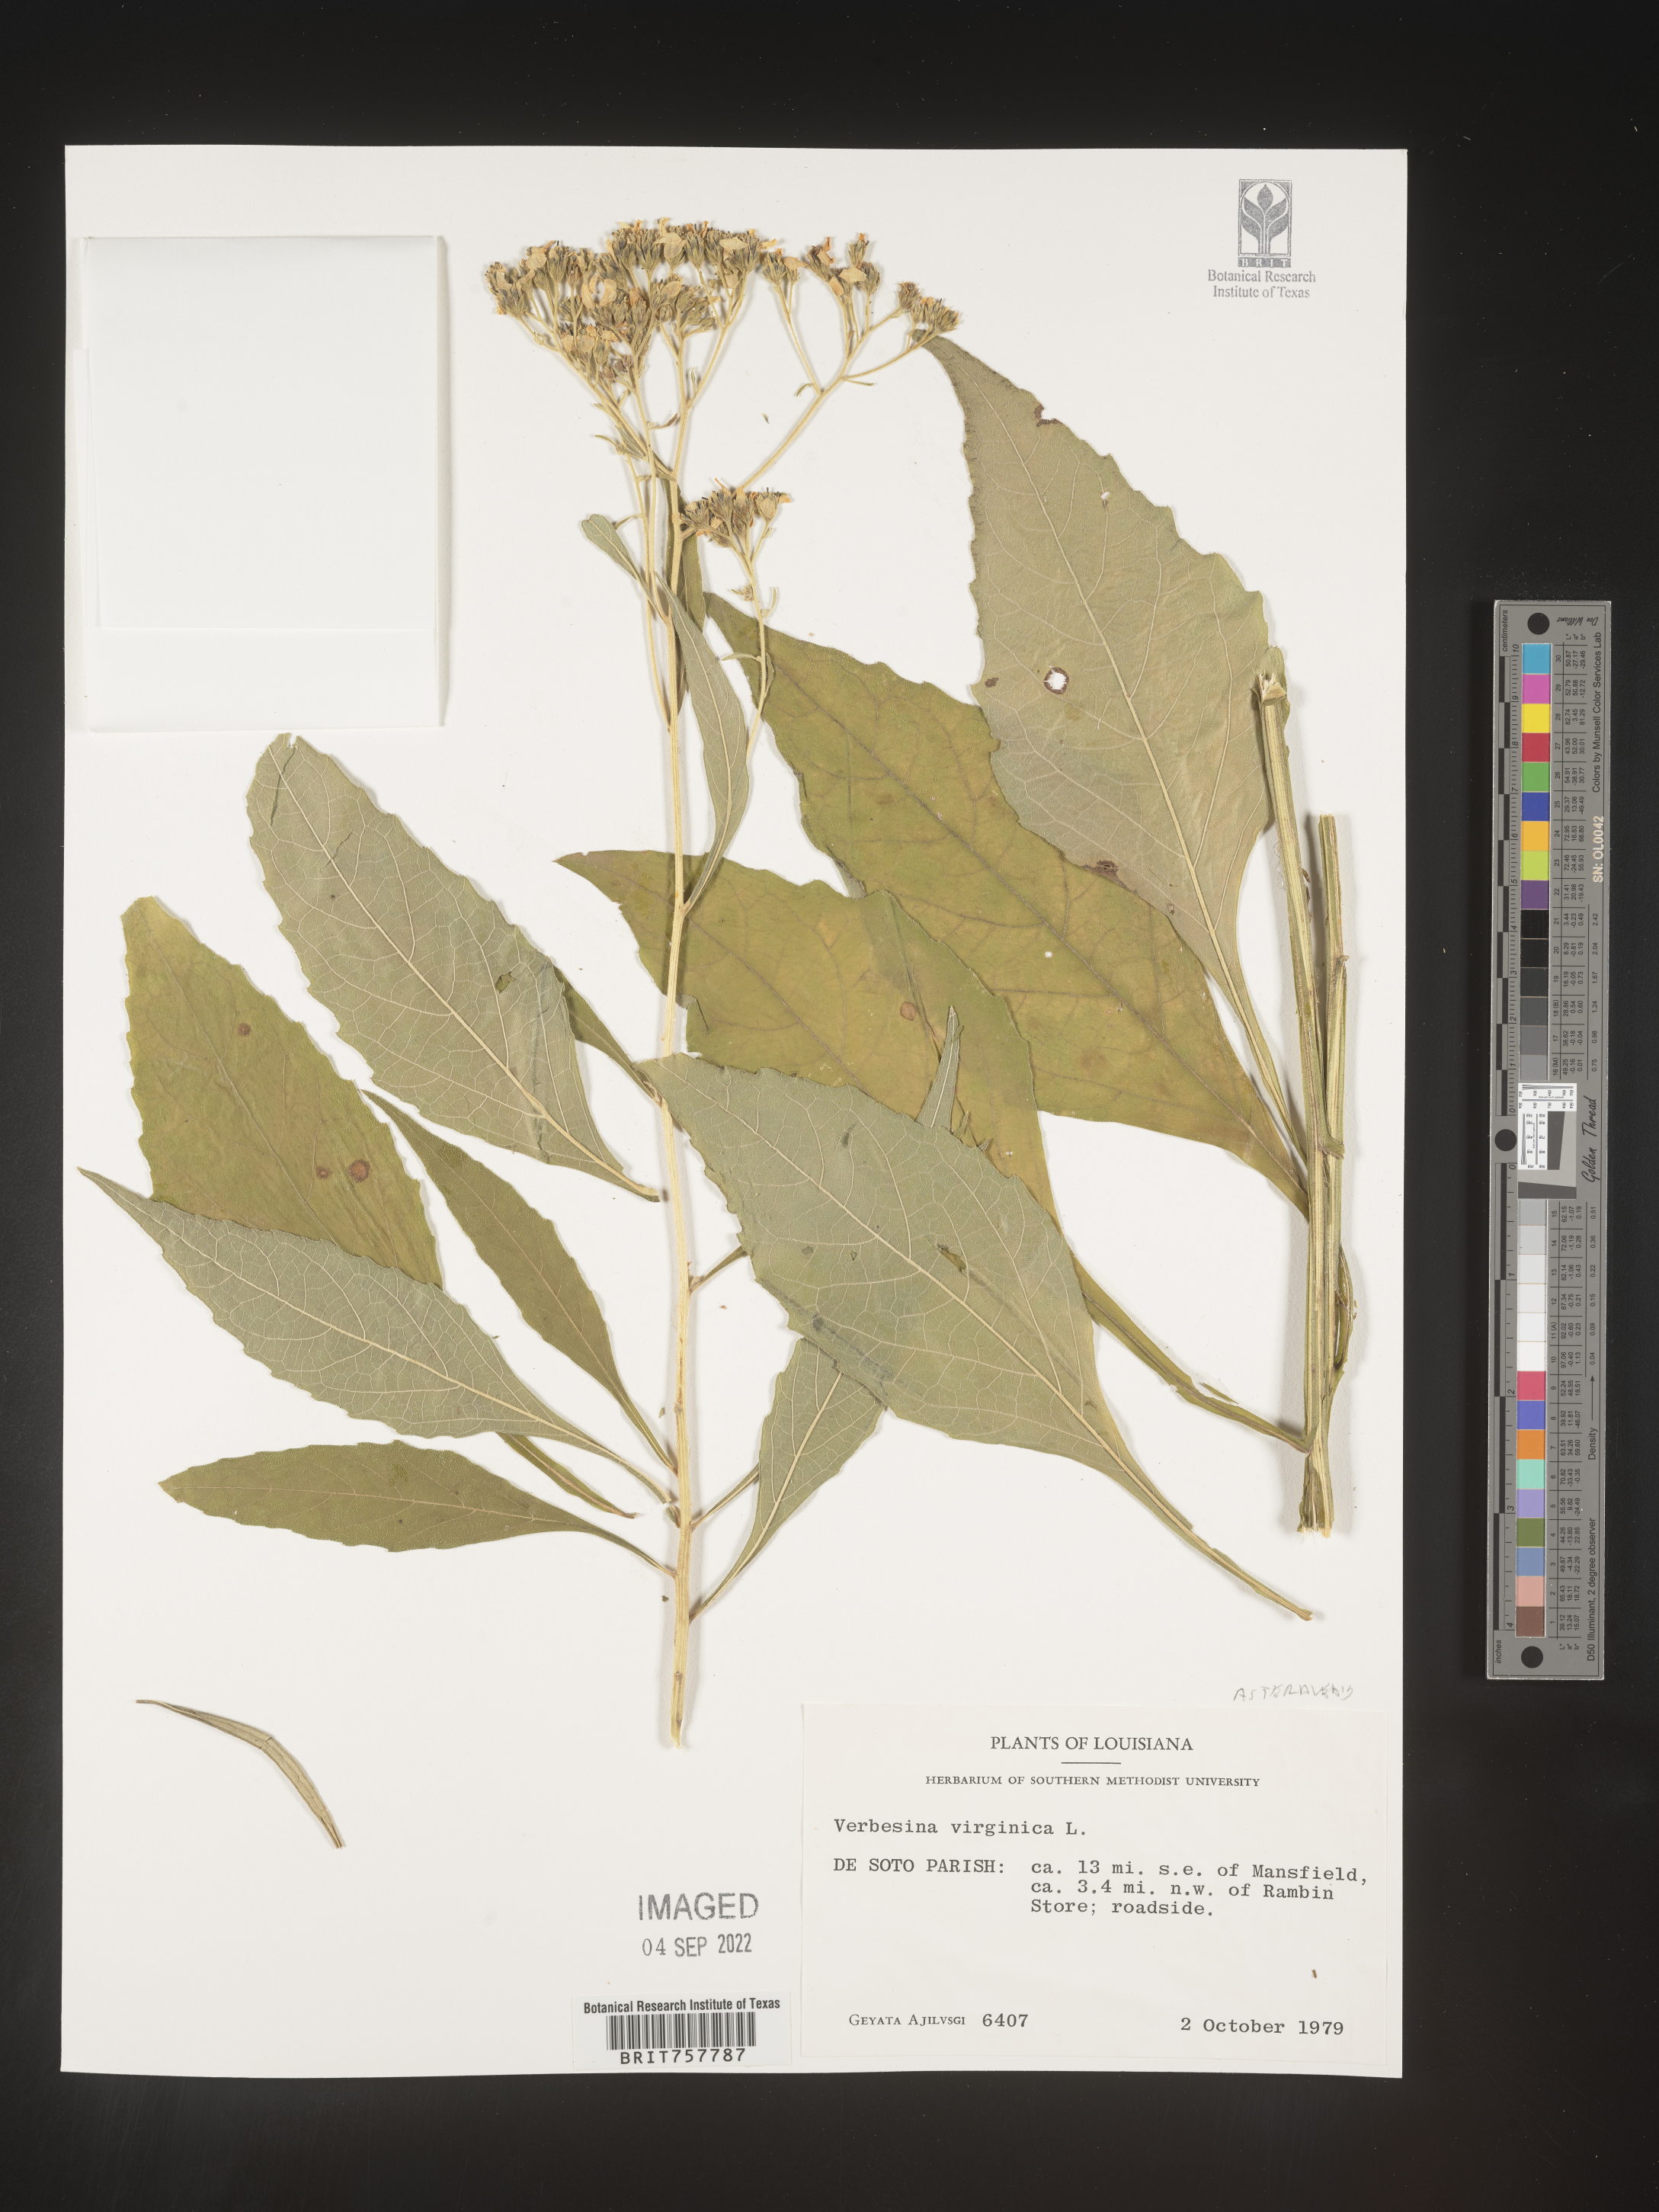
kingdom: Plantae
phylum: Tracheophyta
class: Magnoliopsida
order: Asterales
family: Asteraceae
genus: Verbesina
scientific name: Verbesina virginica
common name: Frostweed
